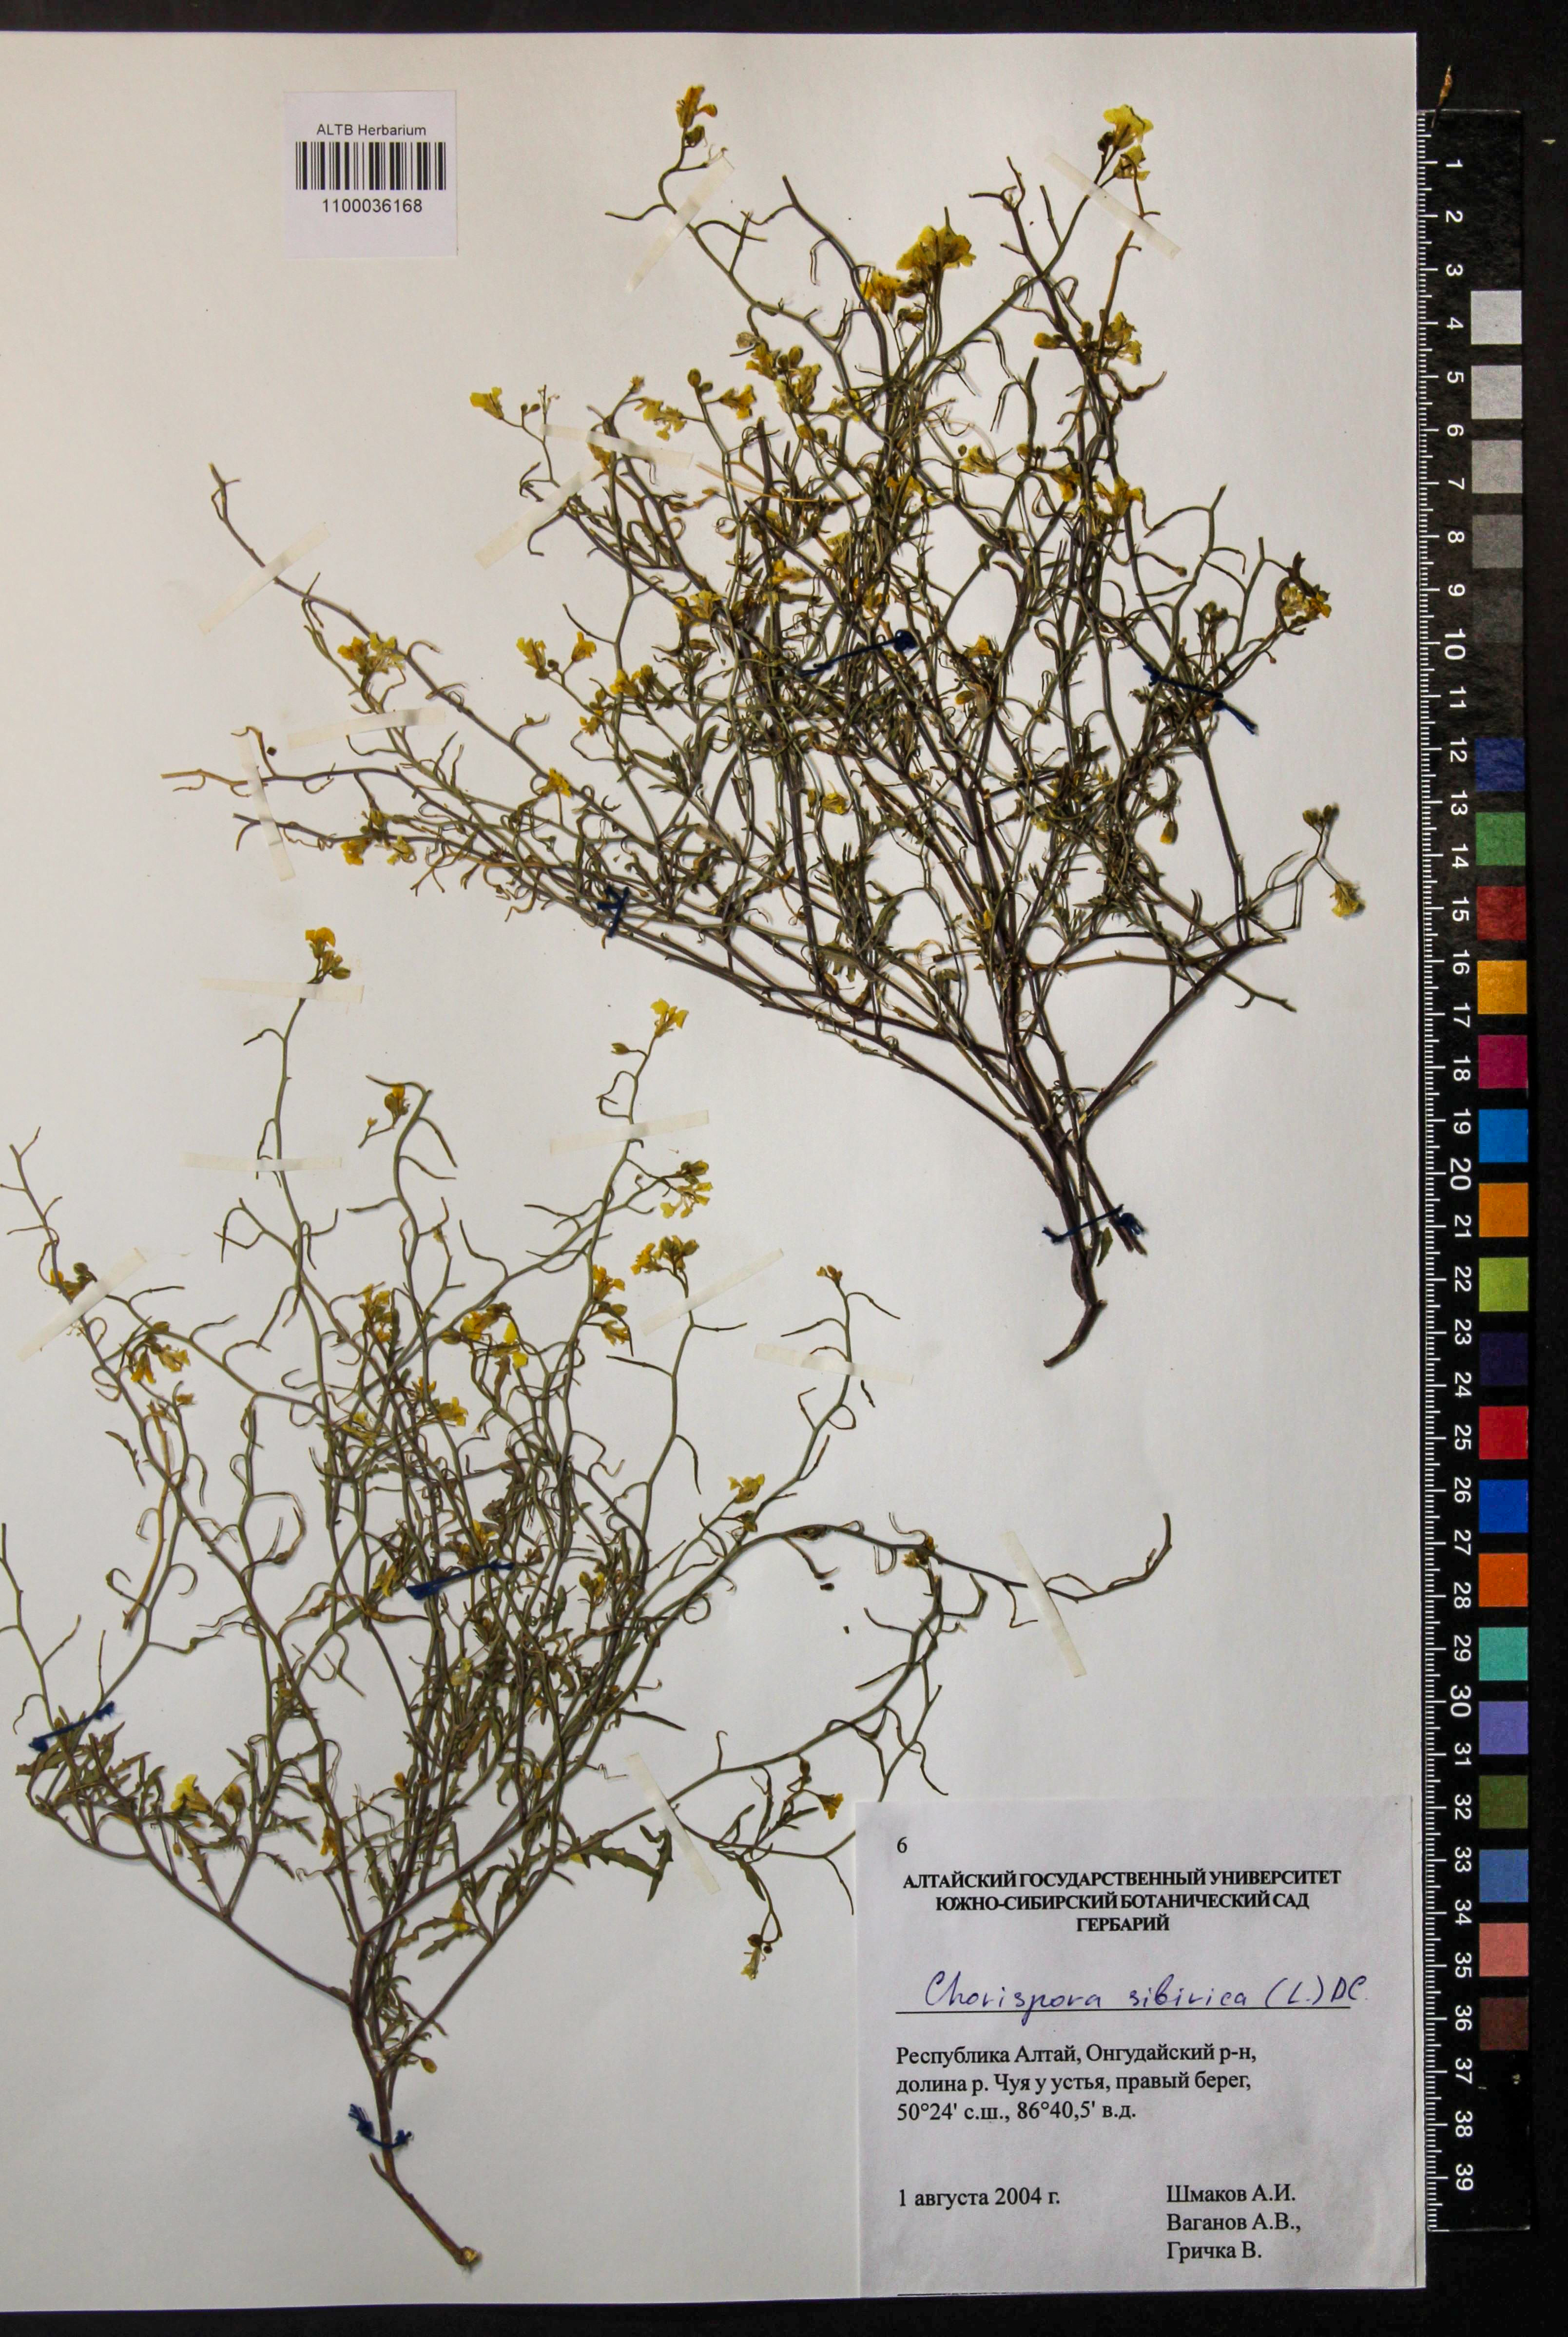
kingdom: Plantae
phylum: Tracheophyta
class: Magnoliopsida
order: Brassicales
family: Brassicaceae
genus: Chorispora
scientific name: Chorispora sibirica
